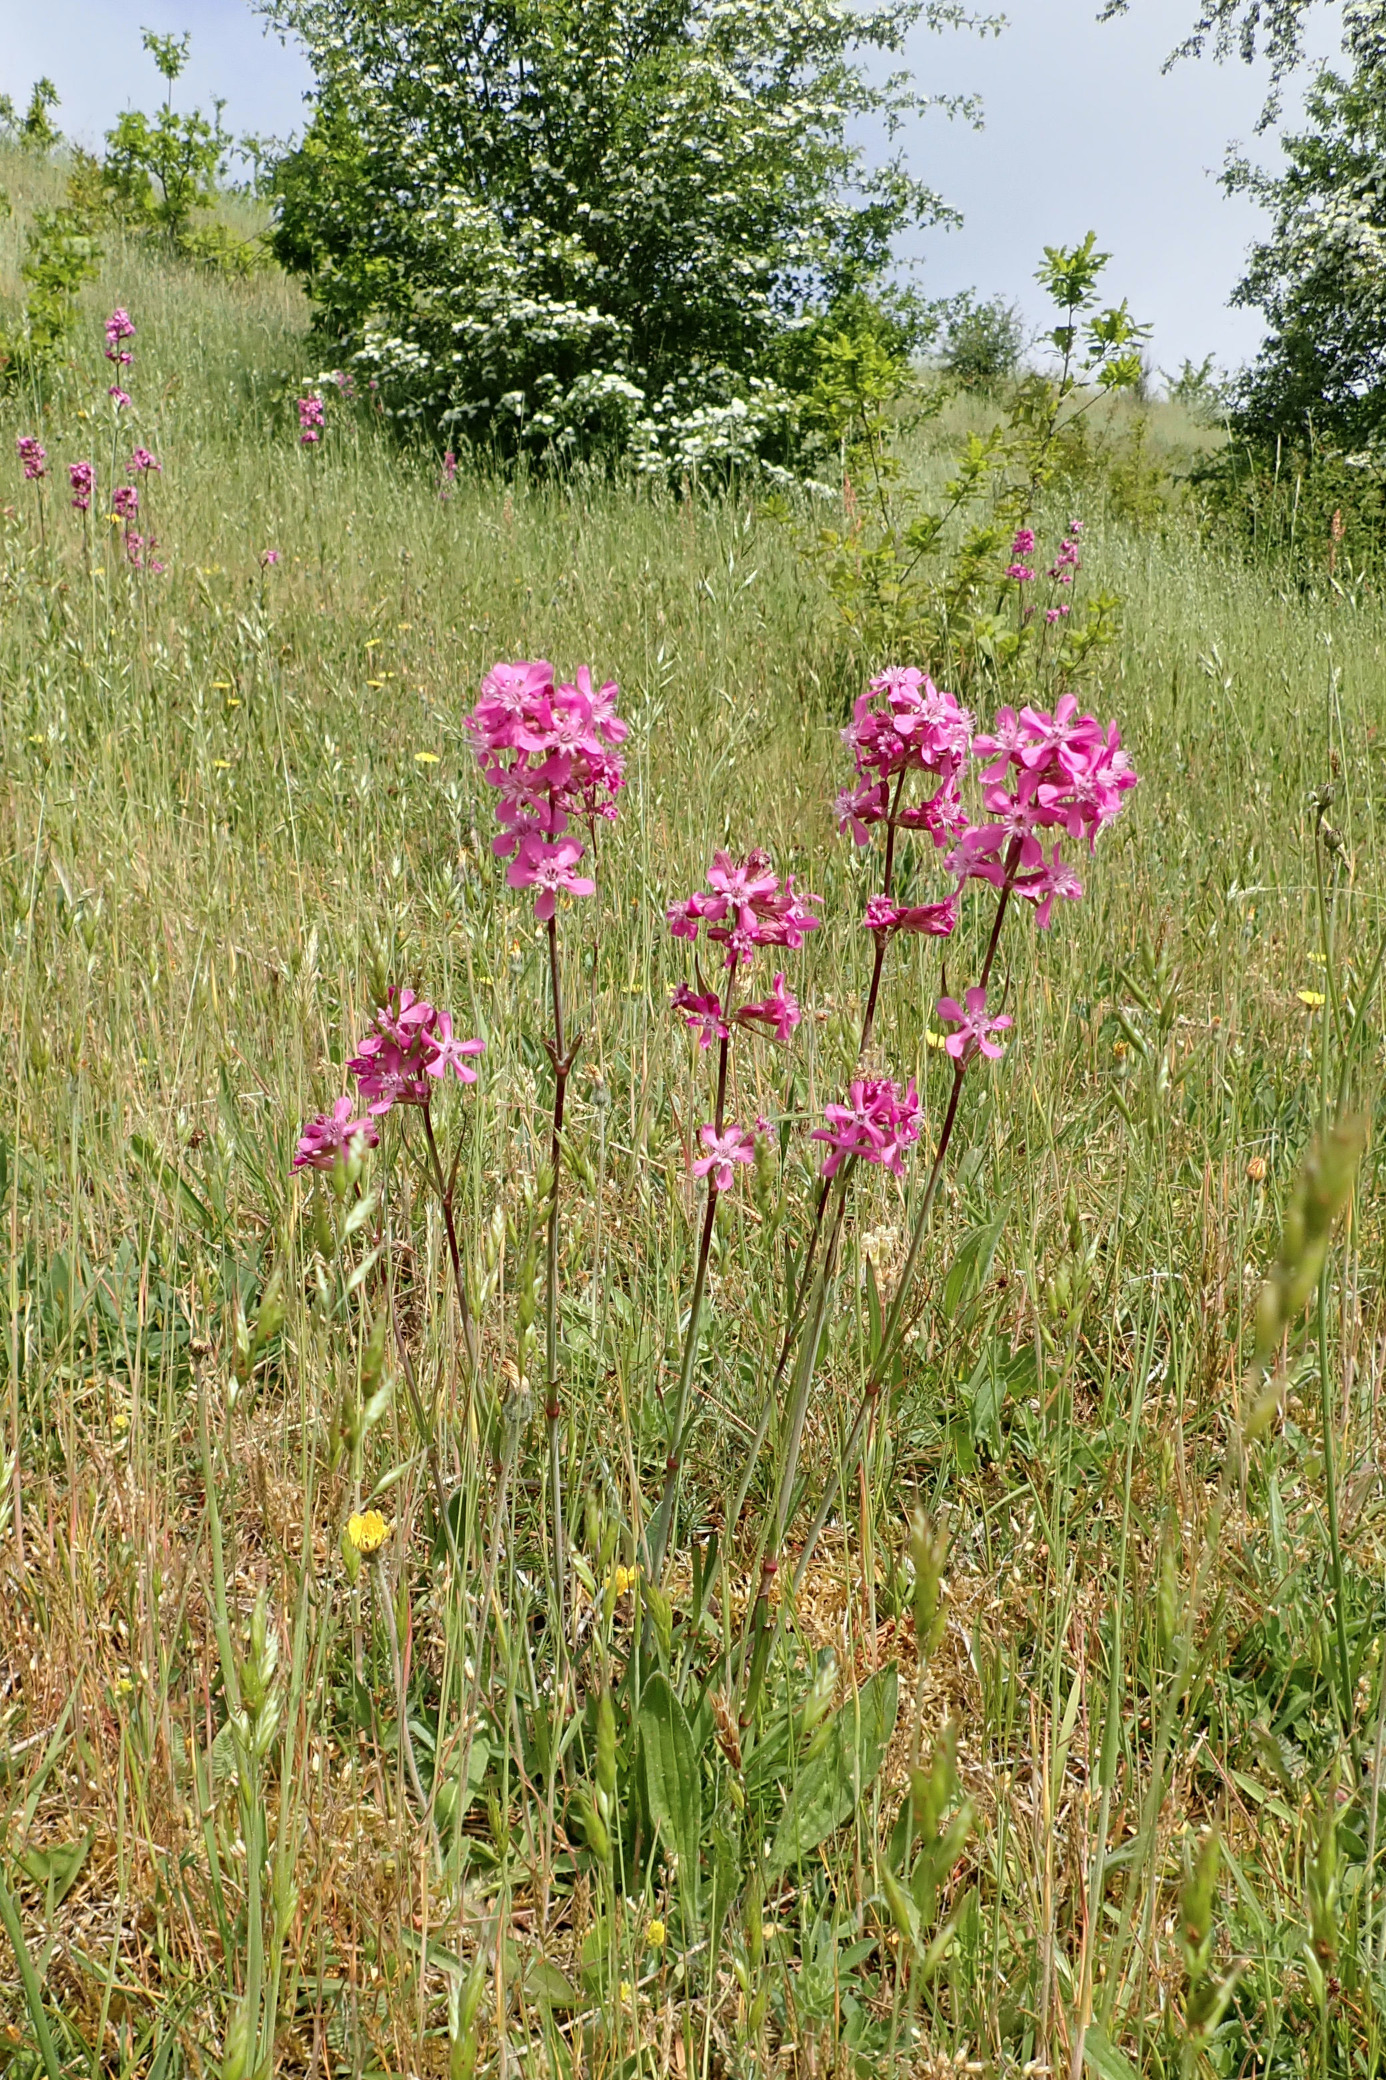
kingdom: Plantae
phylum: Tracheophyta
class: Magnoliopsida
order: Caryophyllales
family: Caryophyllaceae
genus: Viscaria
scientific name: Viscaria vulgaris
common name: Tjærenellike
